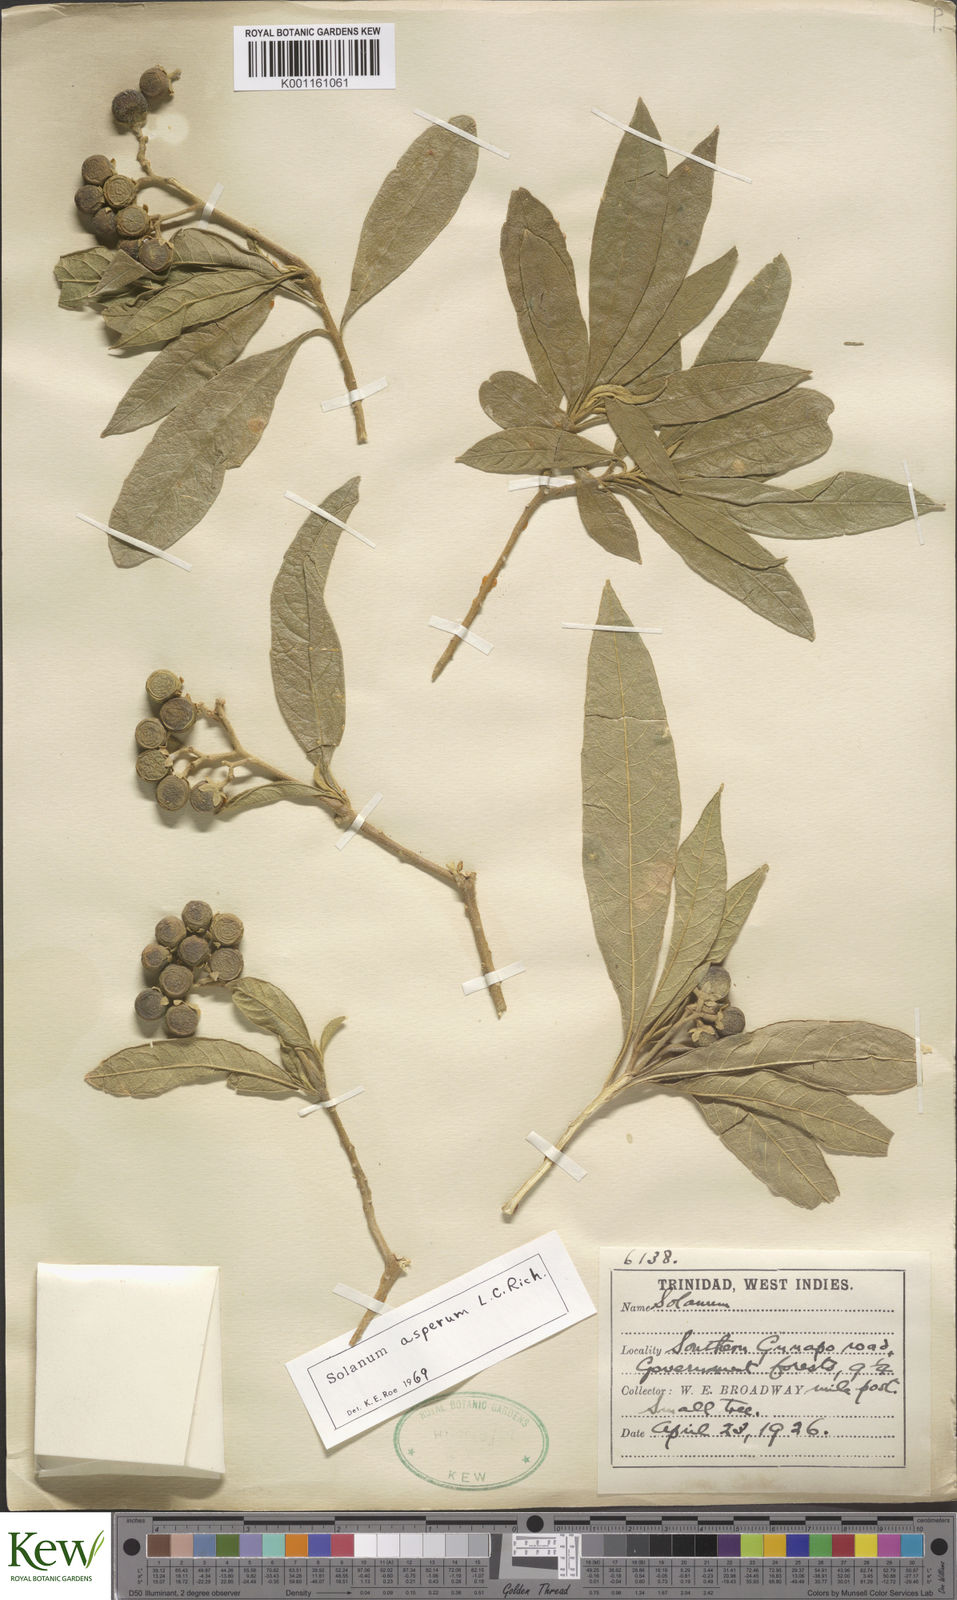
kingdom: Plantae
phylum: Tracheophyta
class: Magnoliopsida
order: Solanales
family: Solanaceae
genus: Solanum
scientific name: Solanum asperum
